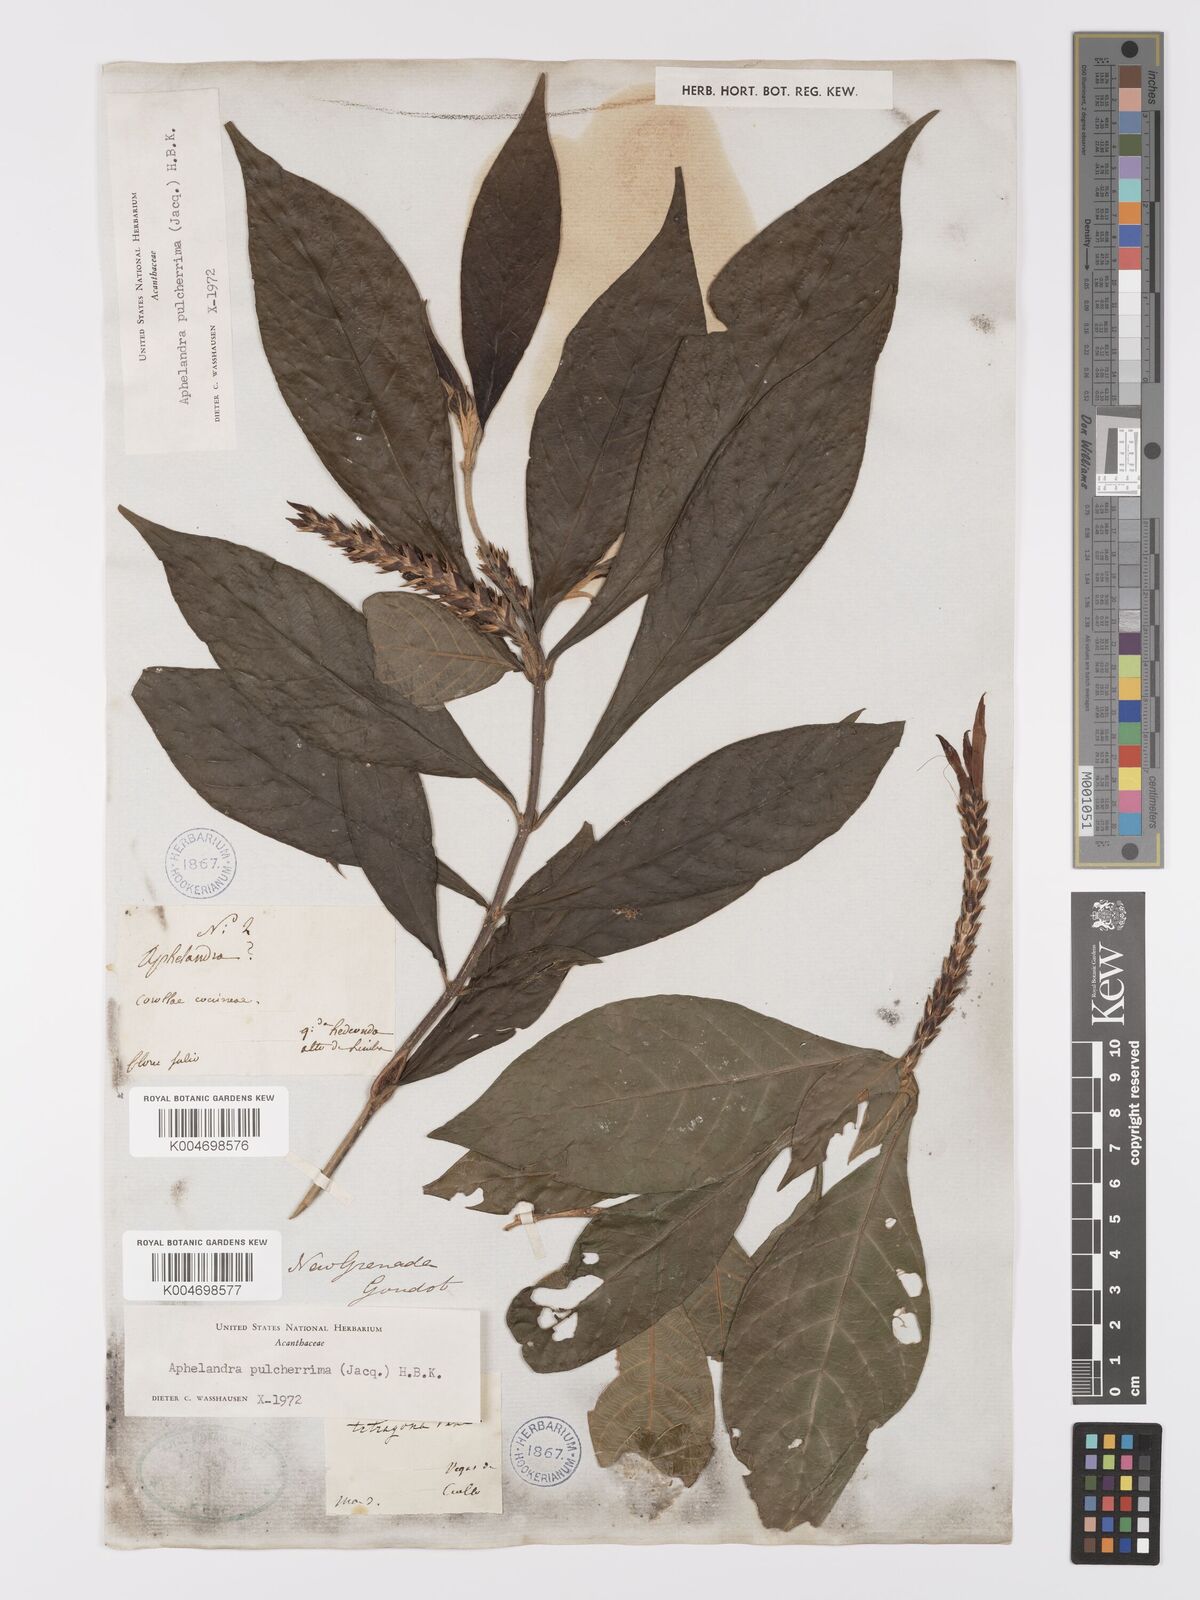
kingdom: Plantae
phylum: Tracheophyta
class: Magnoliopsida
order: Lamiales
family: Acanthaceae
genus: Aphelandra
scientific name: Aphelandra glabrata
